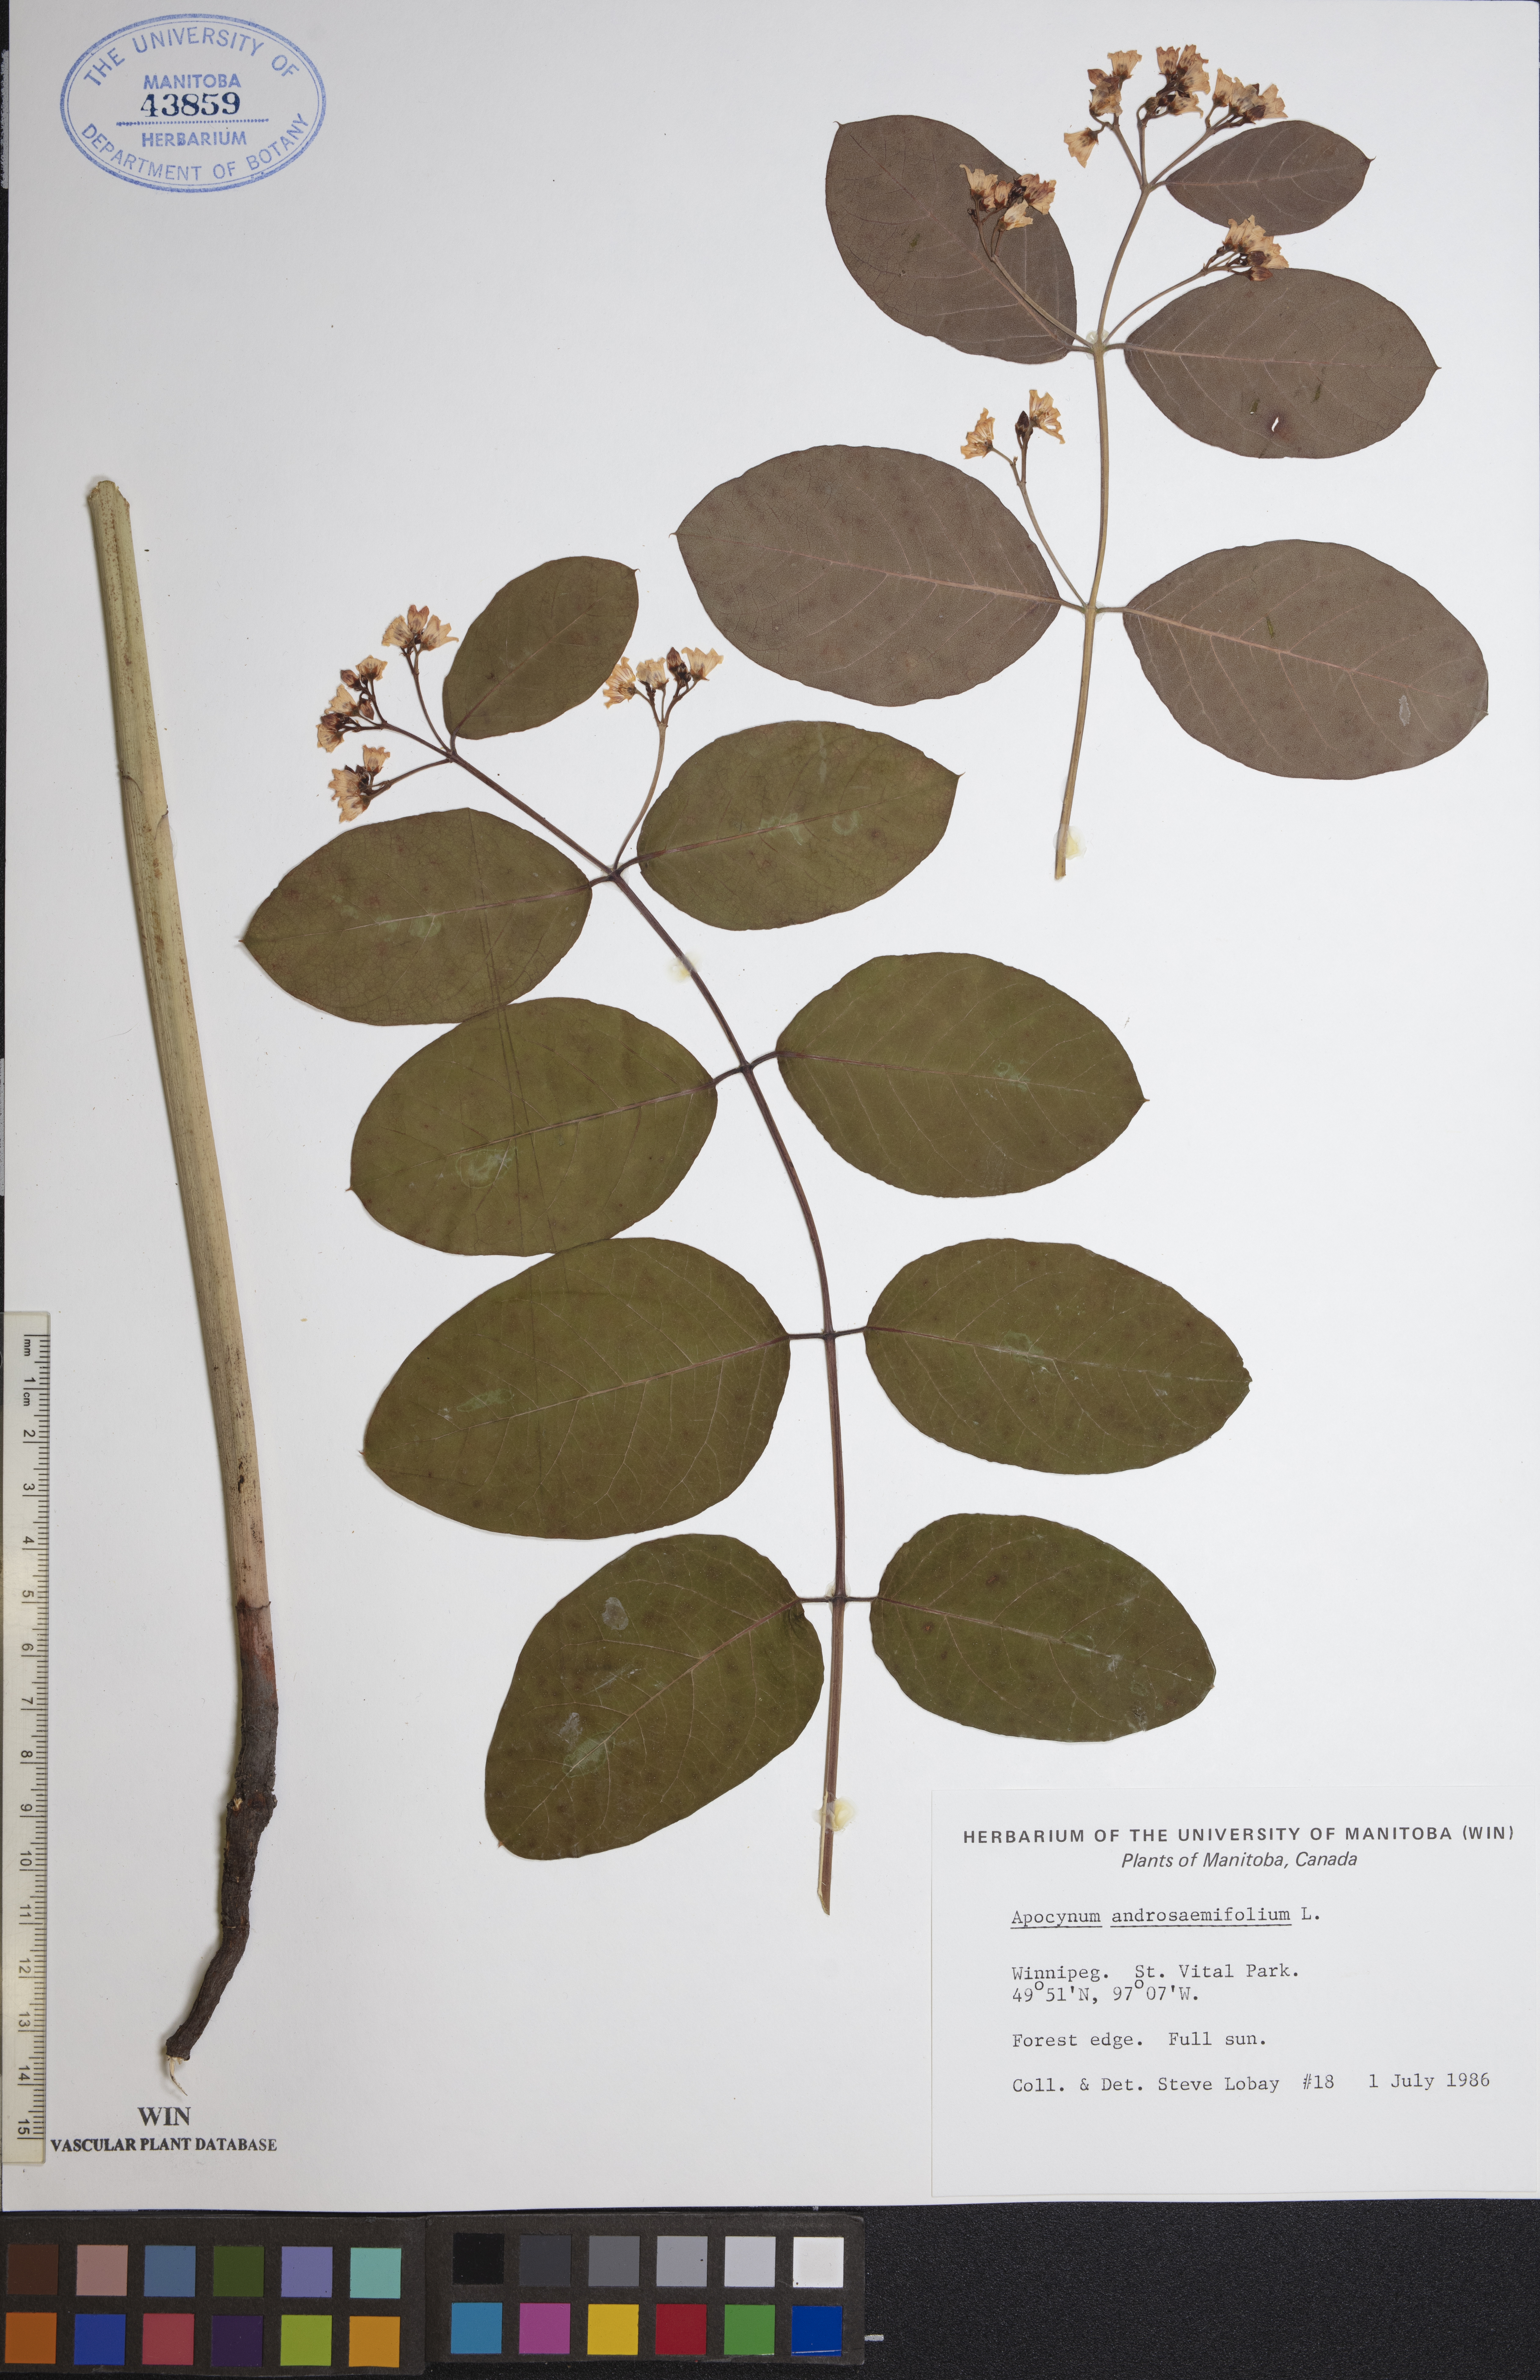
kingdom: Plantae
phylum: Tracheophyta
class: Magnoliopsida
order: Gentianales
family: Apocynaceae
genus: Apocynum
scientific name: Apocynum androsaemifolium
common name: Spreading dogbane
